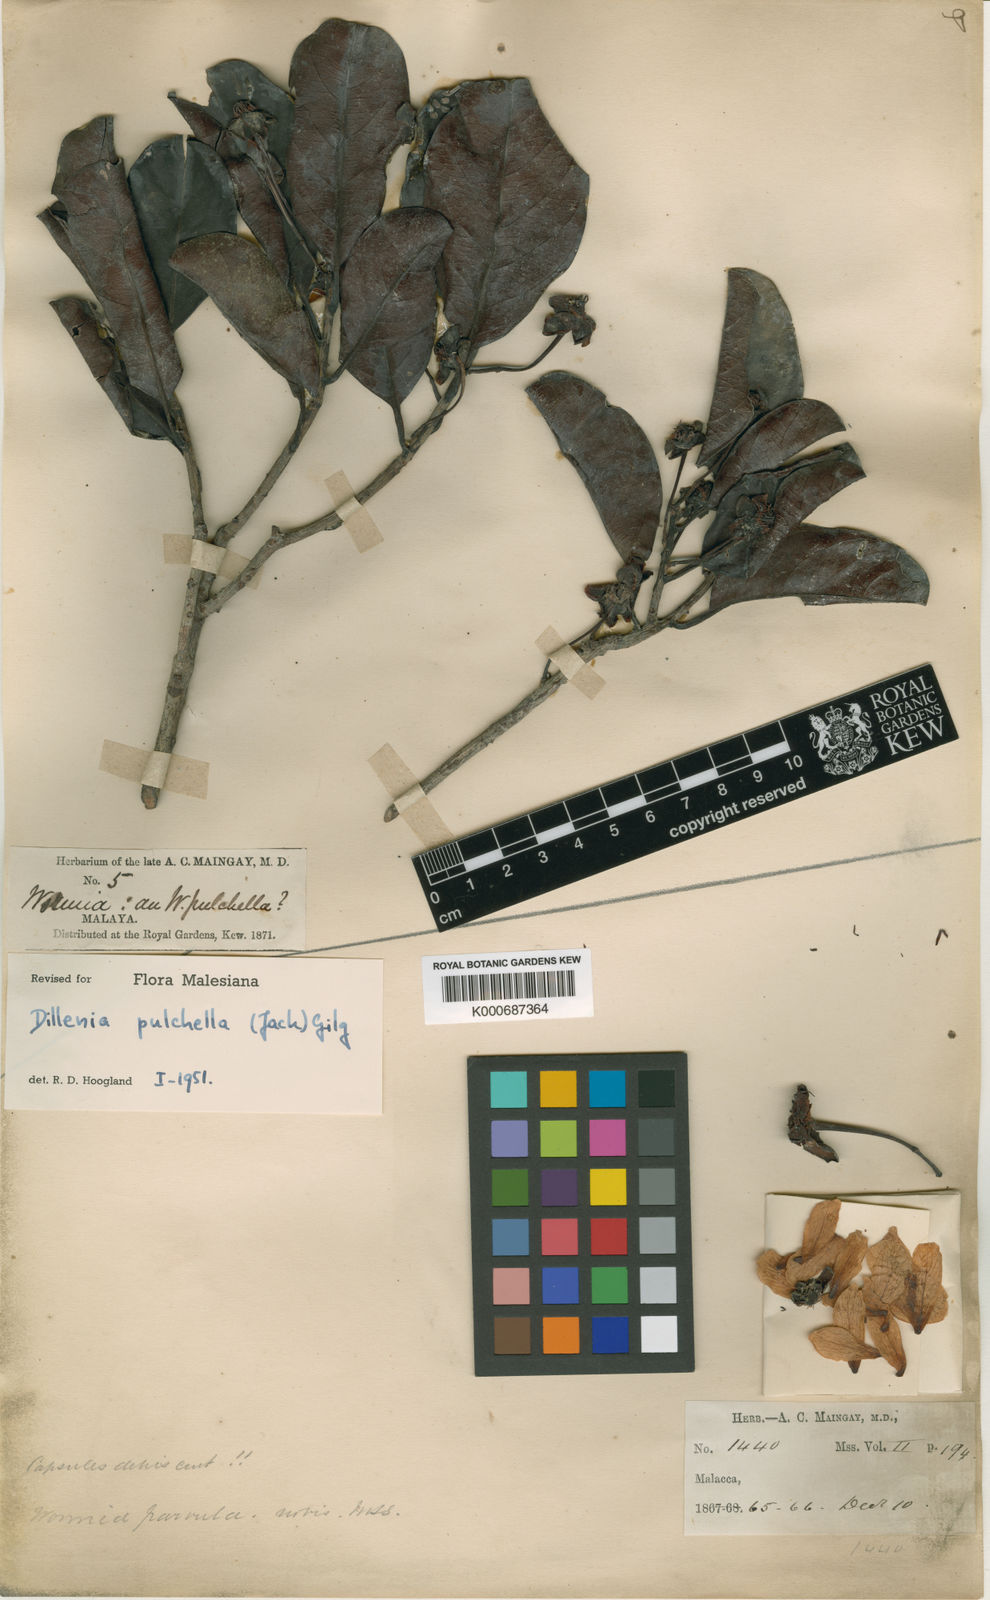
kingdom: Plantae
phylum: Tracheophyta
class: Magnoliopsida
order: Dilleniales
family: Dilleniaceae
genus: Dillenia
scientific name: Dillenia pulchella
